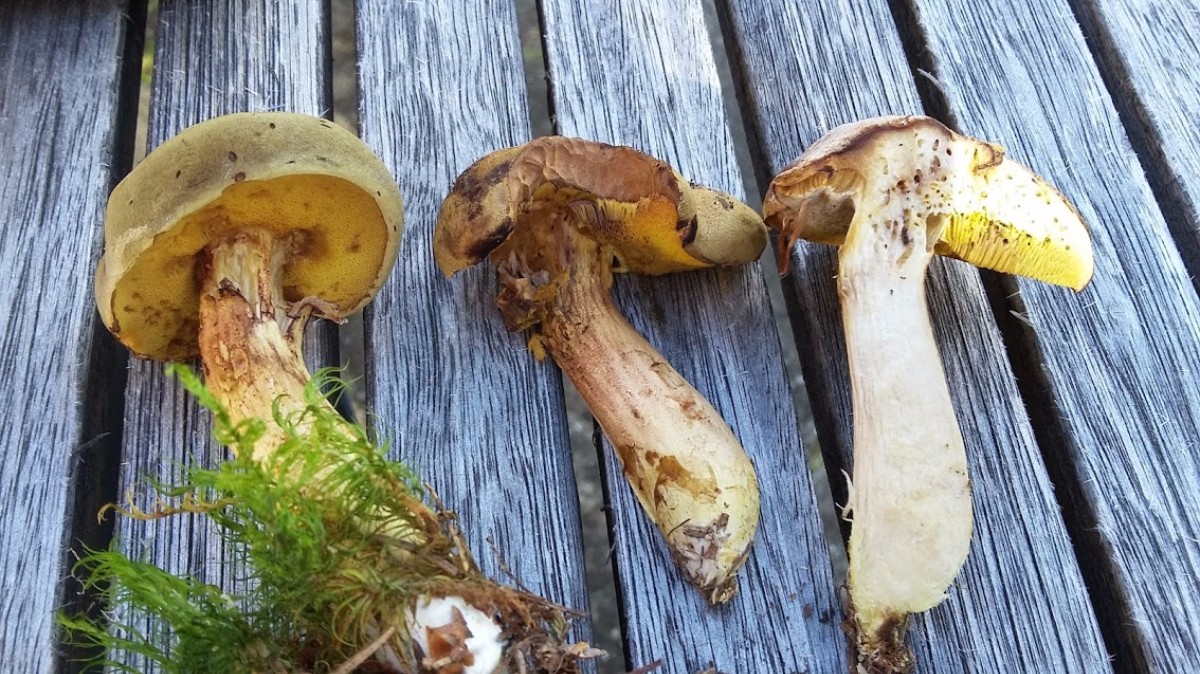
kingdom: Fungi
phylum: Basidiomycota
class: Agaricomycetes
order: Boletales
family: Boletaceae
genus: Xerocomus
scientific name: Xerocomus ferrugineus
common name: vaskeskinds-rørhat
